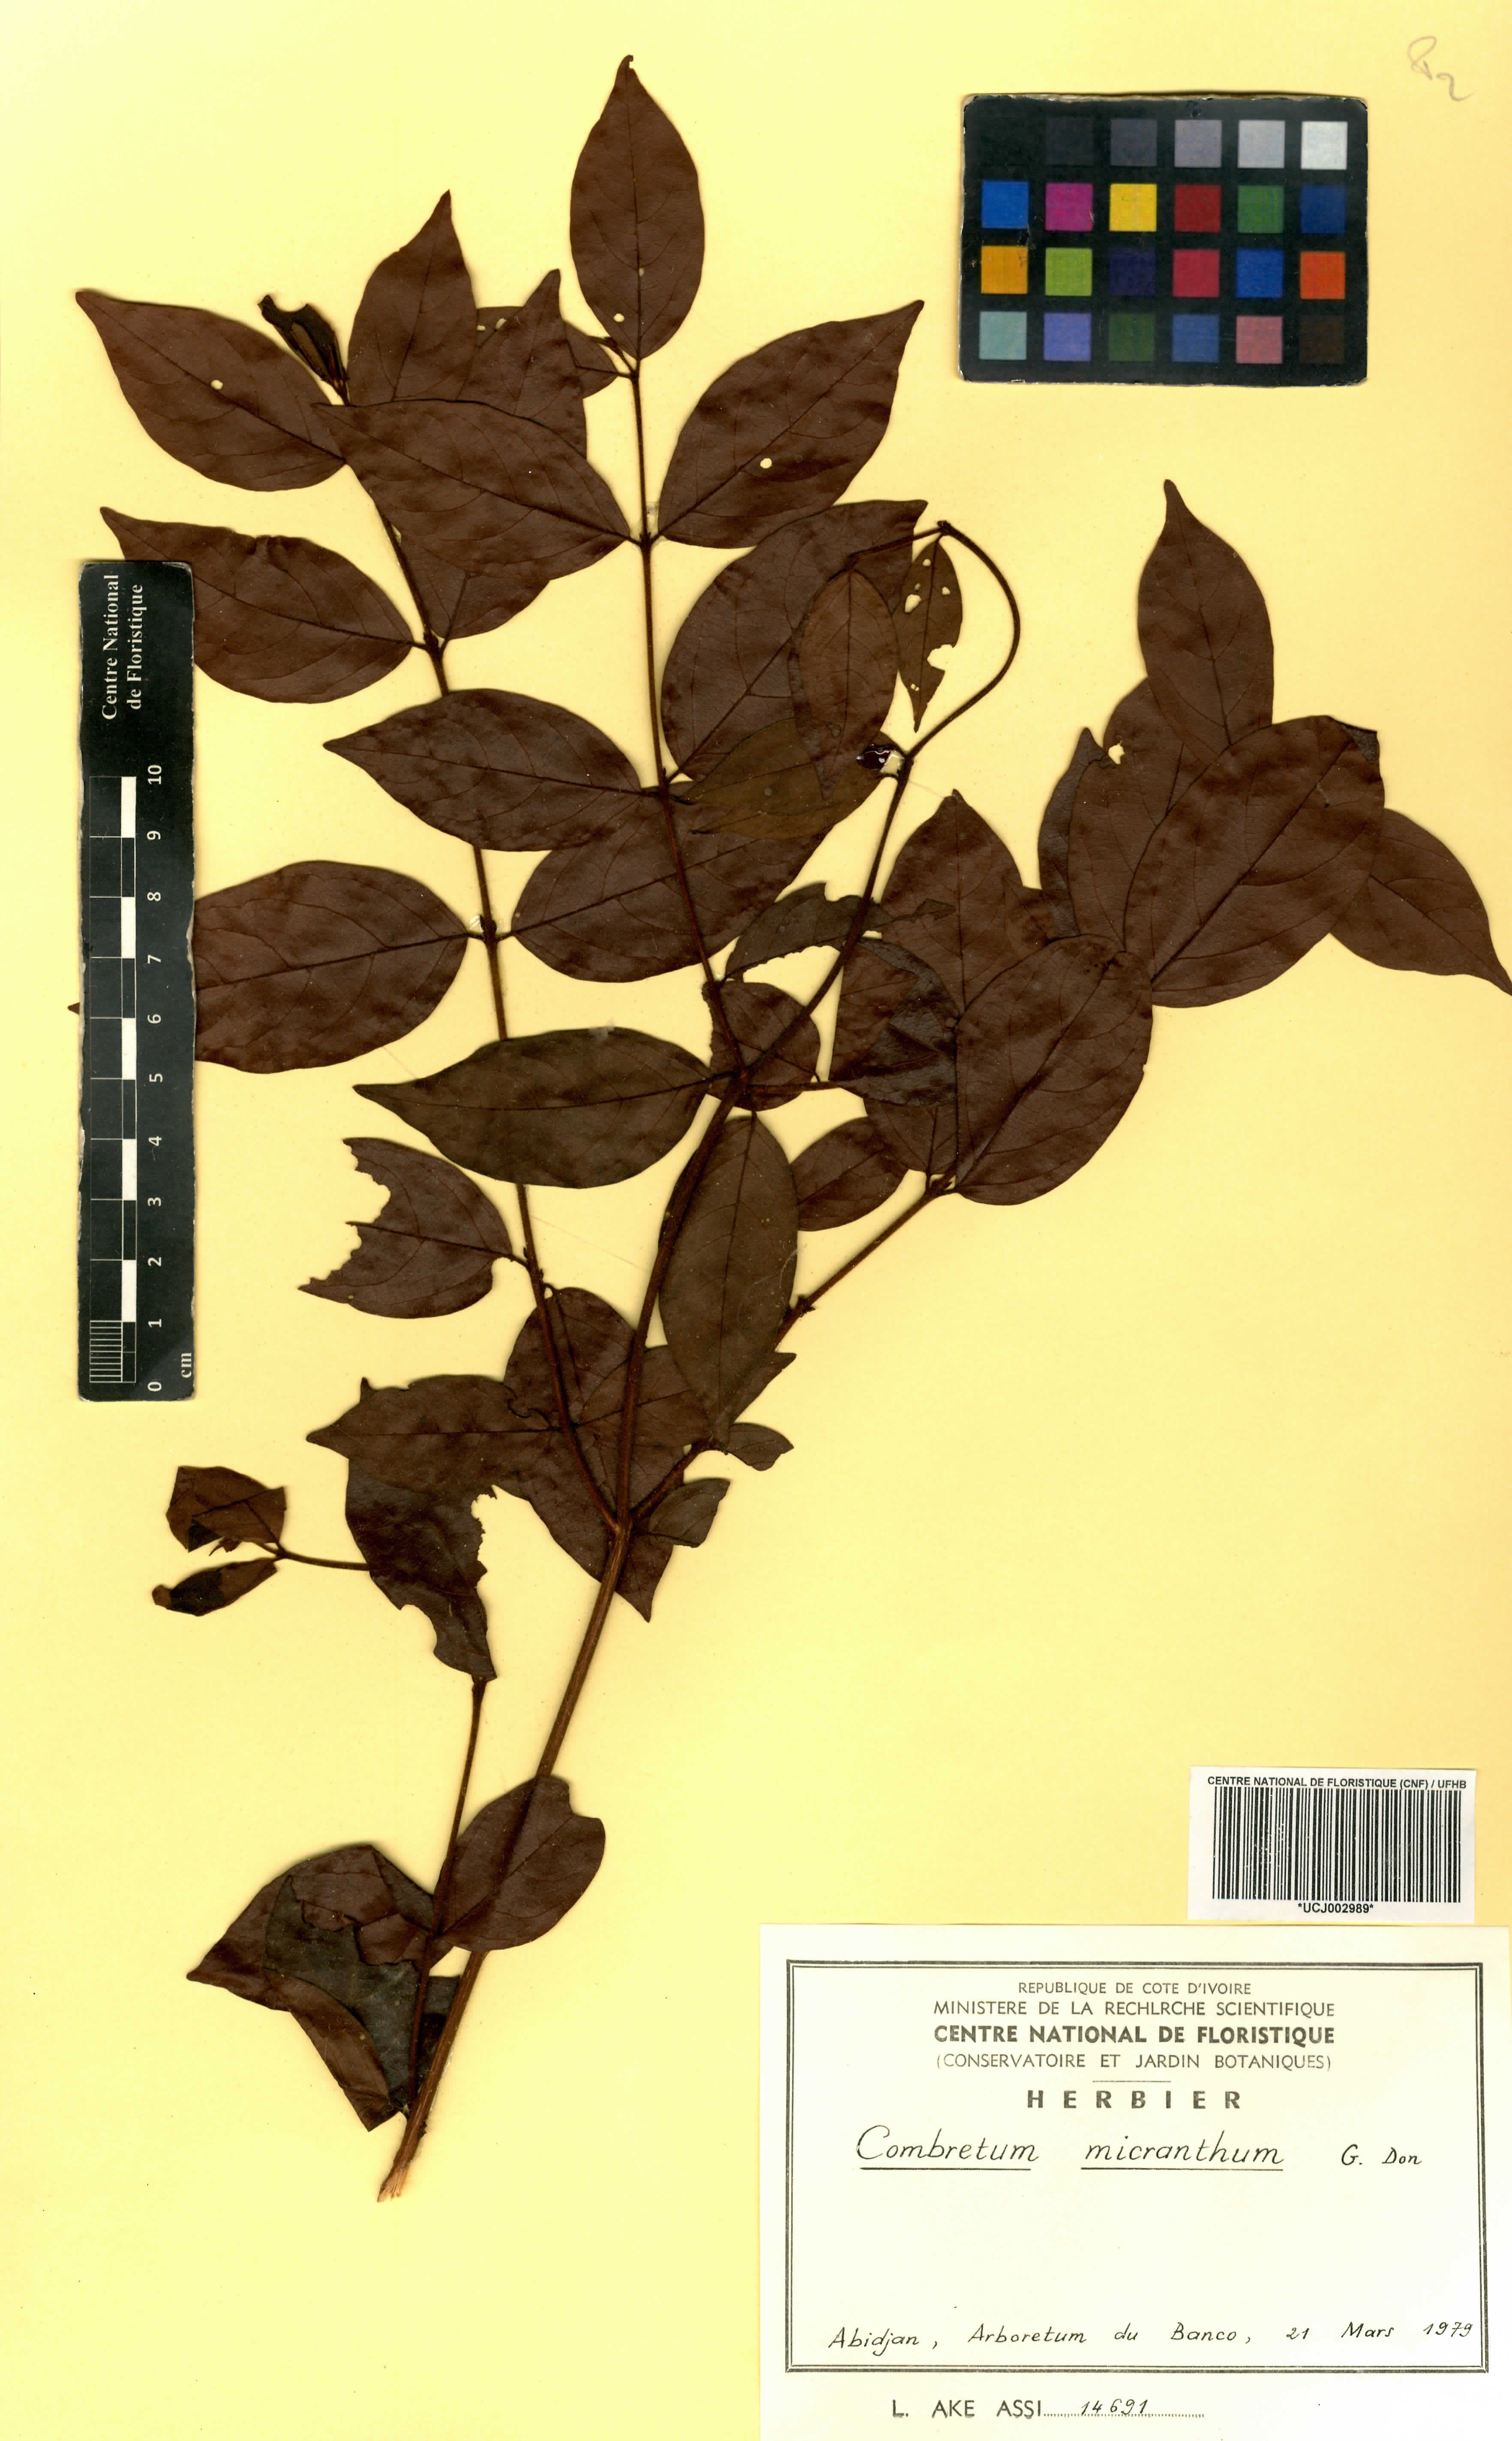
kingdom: Plantae
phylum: Tracheophyta
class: Magnoliopsida
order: Myrtales
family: Combretaceae
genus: Combretum
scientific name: Combretum micranthum
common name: Opium-antidote
